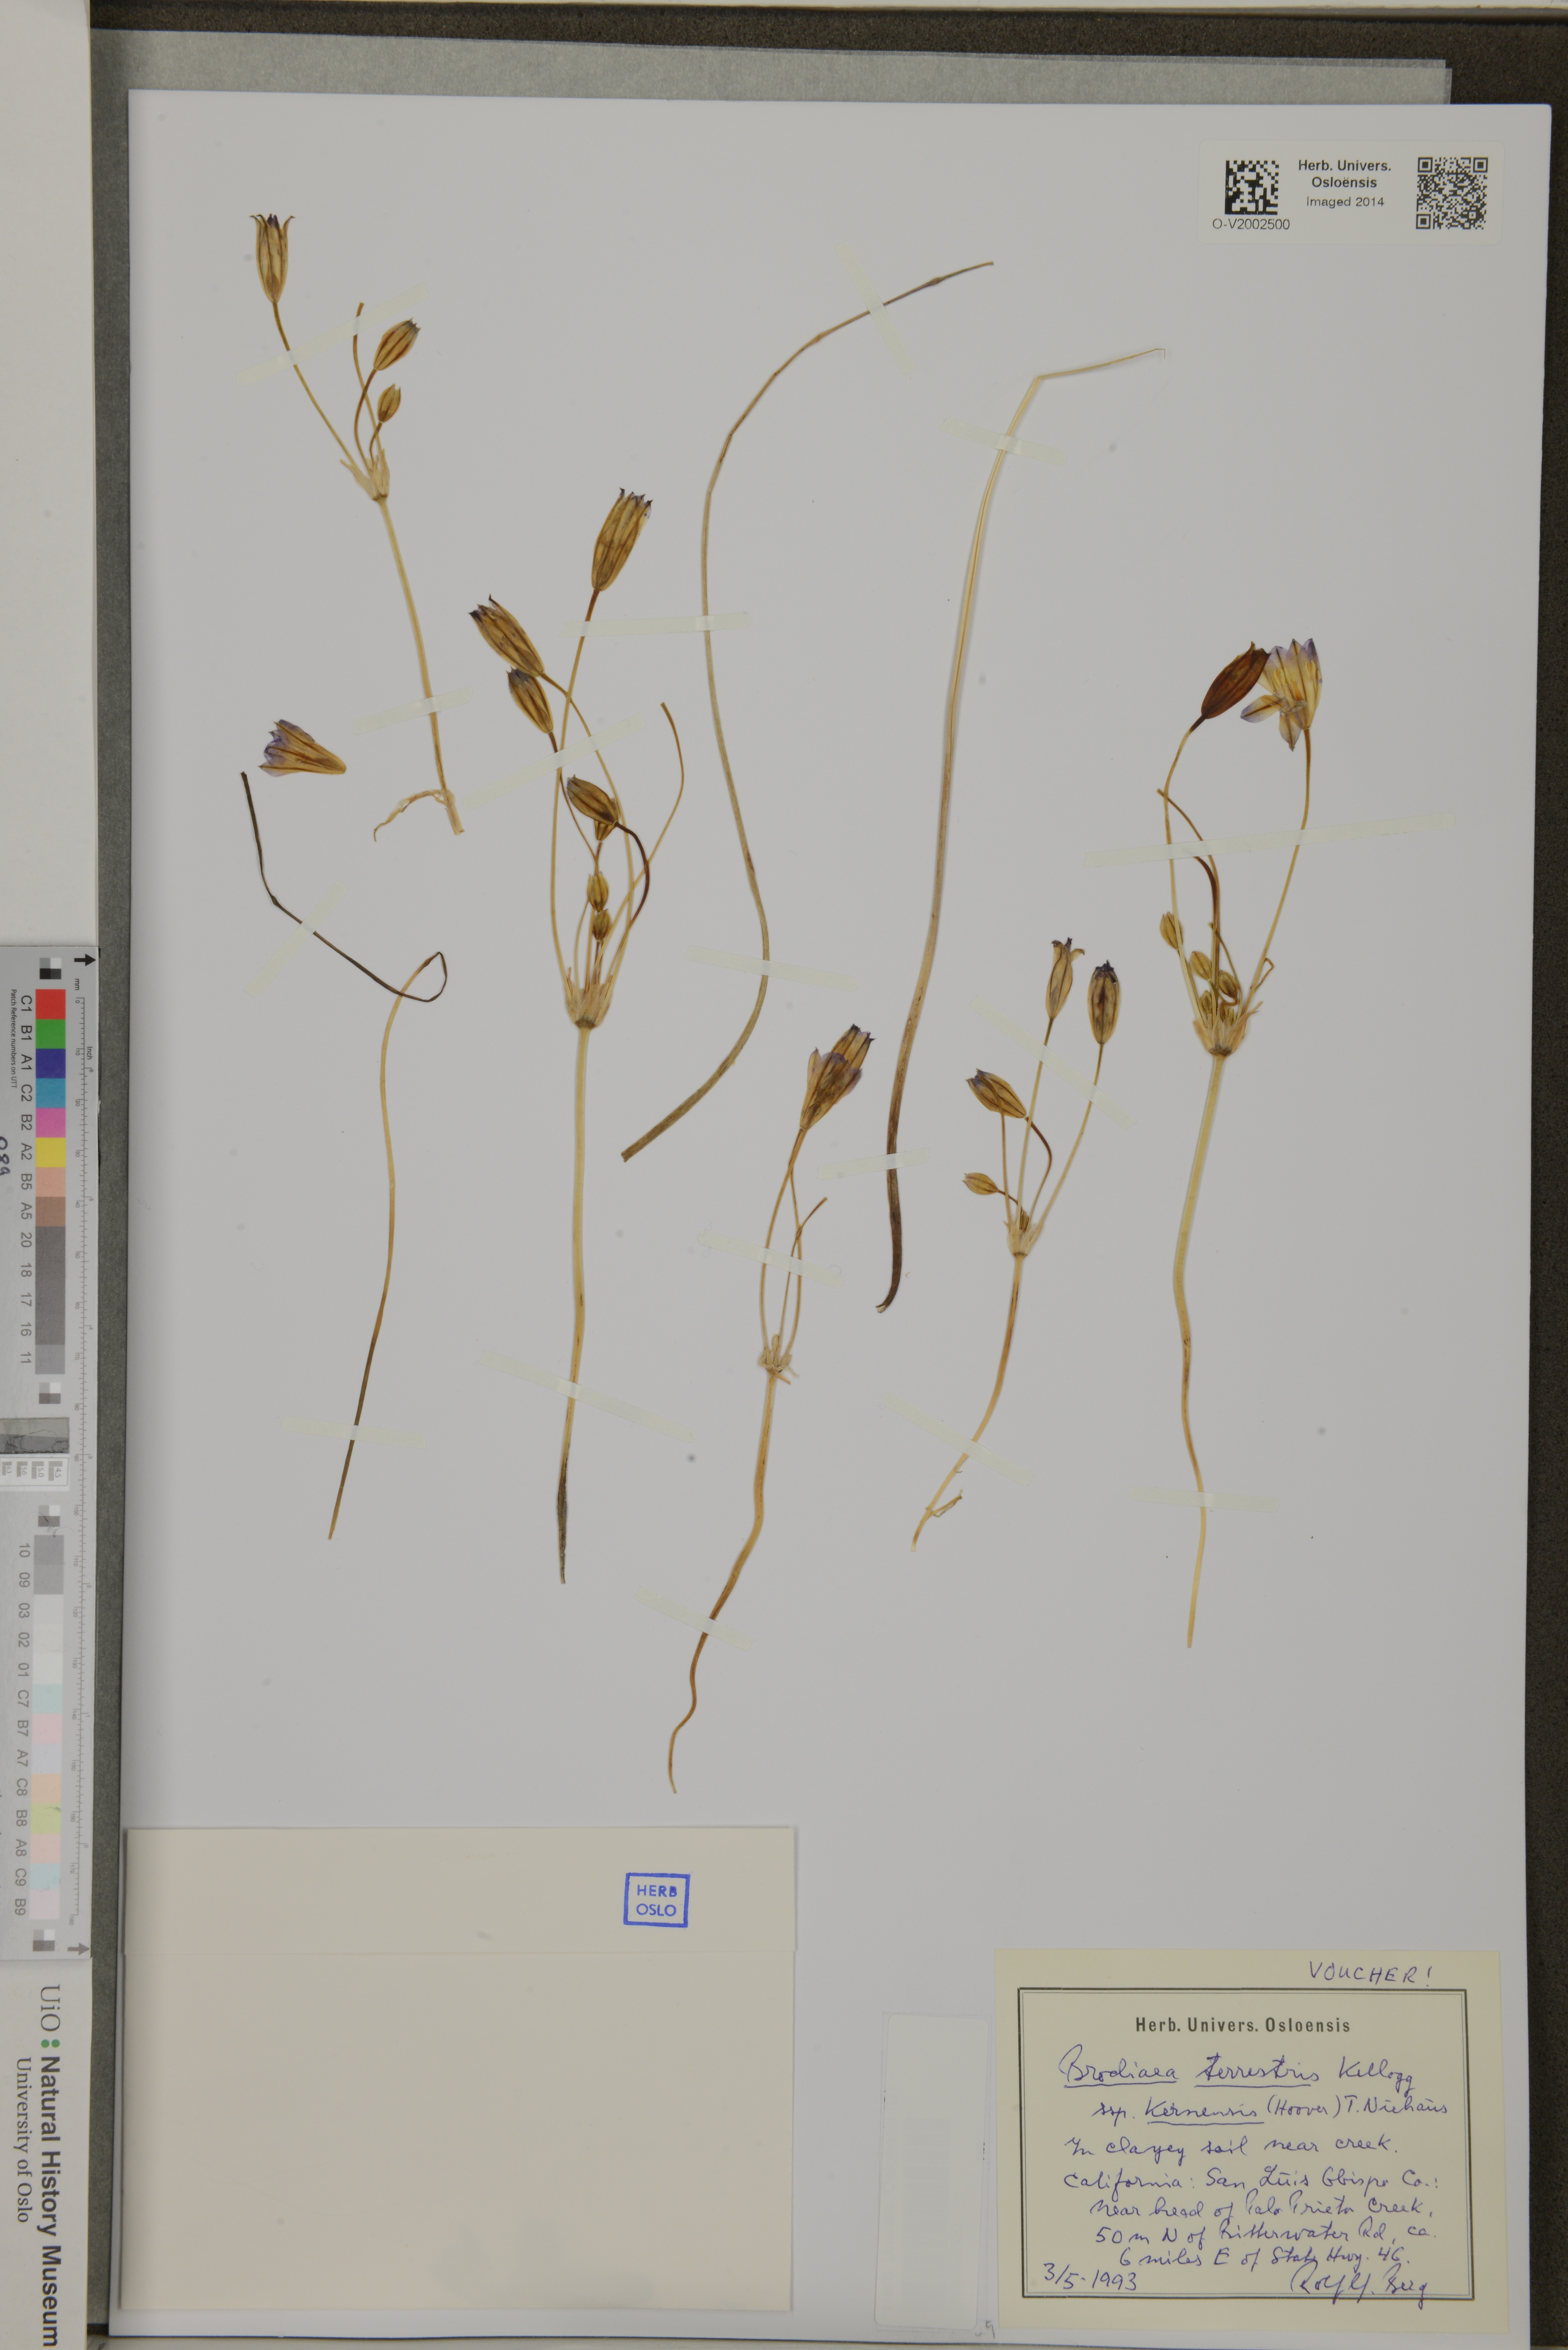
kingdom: Plantae
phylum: Tracheophyta
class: Liliopsida
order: Asparagales
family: Asparagaceae
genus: Brodiaea
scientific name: Brodiaea terrestris
